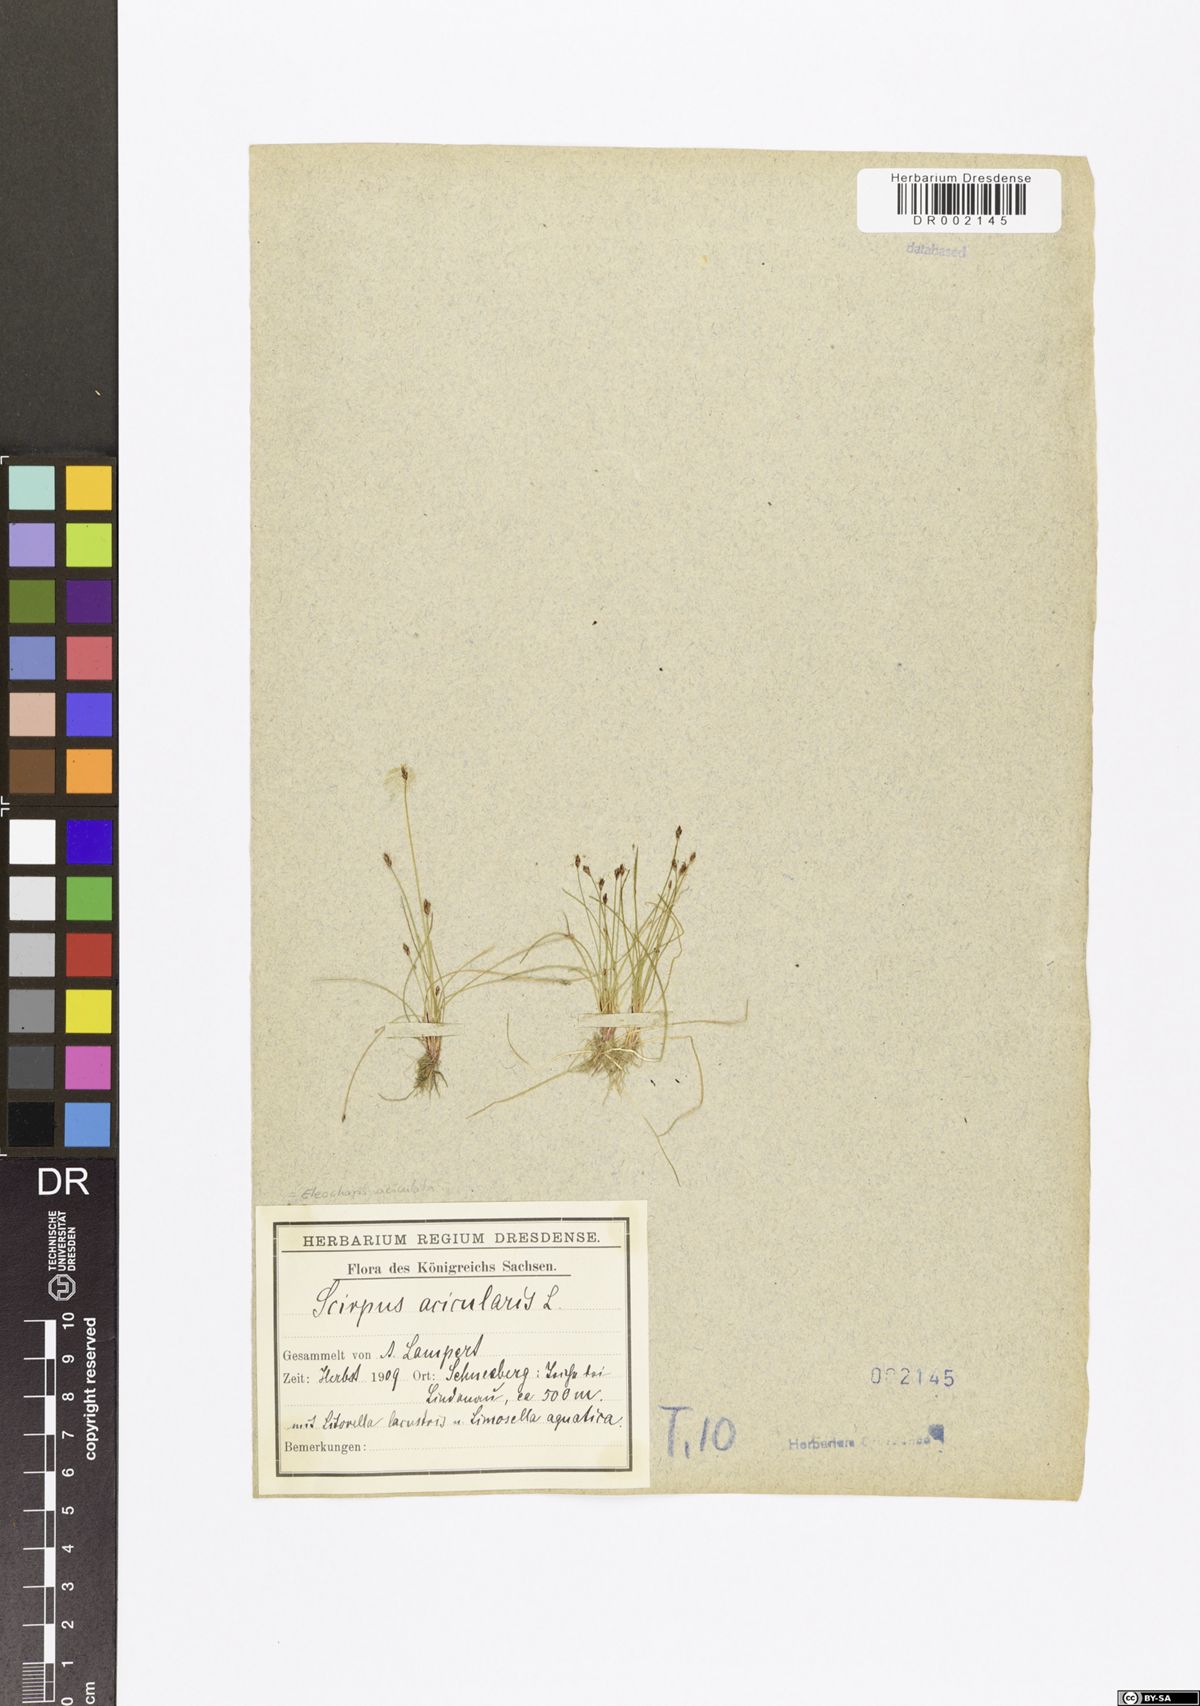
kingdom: Plantae
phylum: Tracheophyta
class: Liliopsida
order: Poales
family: Cyperaceae
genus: Eleocharis
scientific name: Eleocharis acicularis
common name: Needle spike-rush
